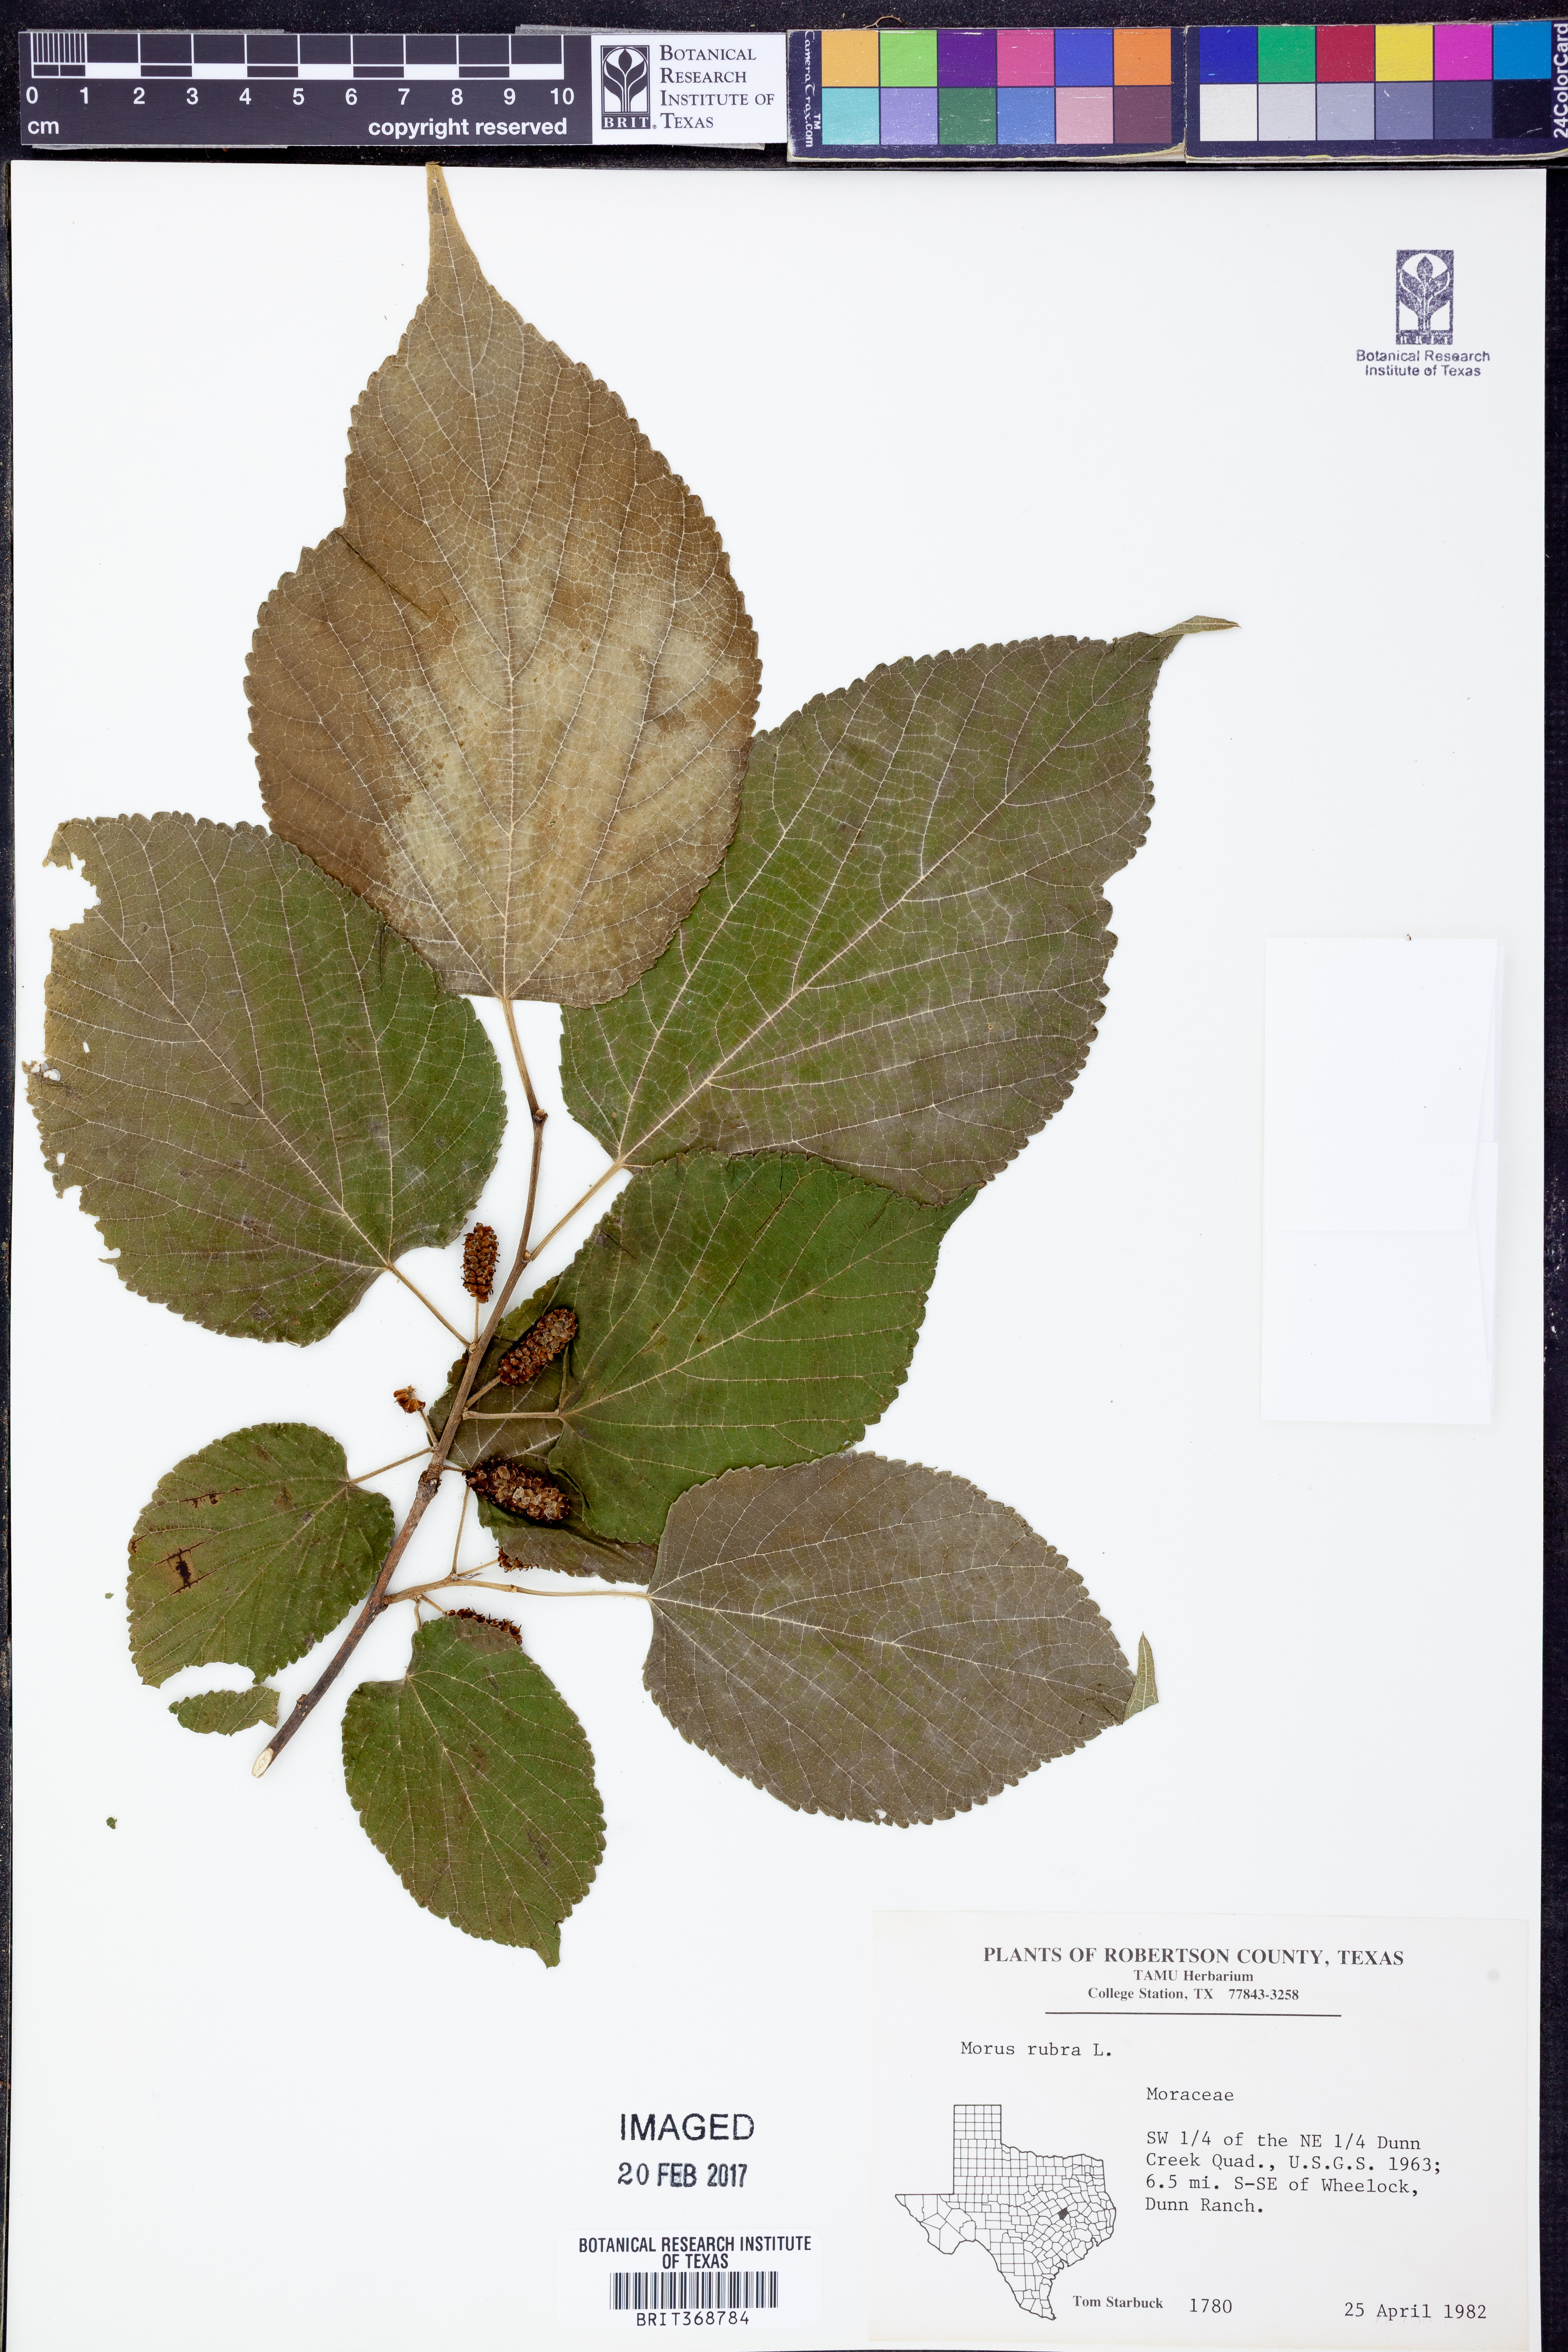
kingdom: Plantae
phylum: Tracheophyta
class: Magnoliopsida
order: Rosales
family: Moraceae
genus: Morus
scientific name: Morus rubra
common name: Red mulberry
